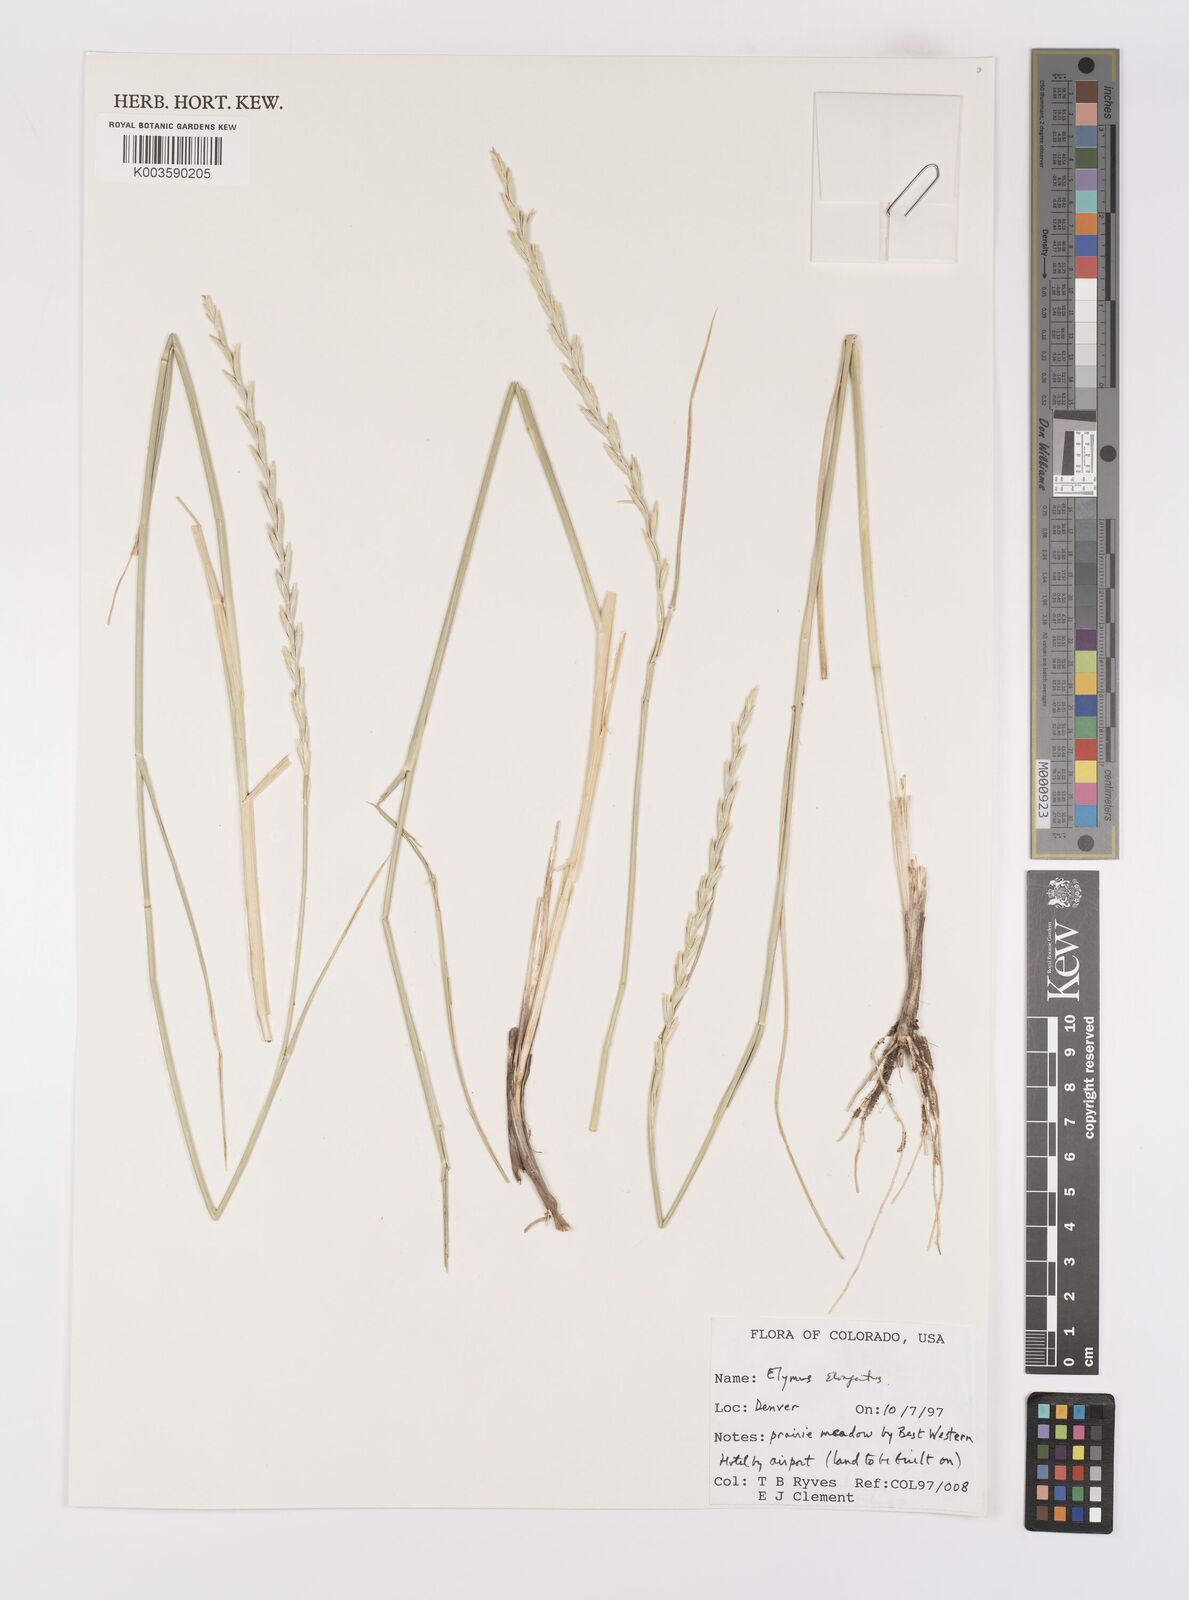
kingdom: Plantae
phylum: Tracheophyta
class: Liliopsida
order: Poales
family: Poaceae
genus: Thinopyrum
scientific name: Thinopyrum elongatum
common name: Tall wheatgrass
